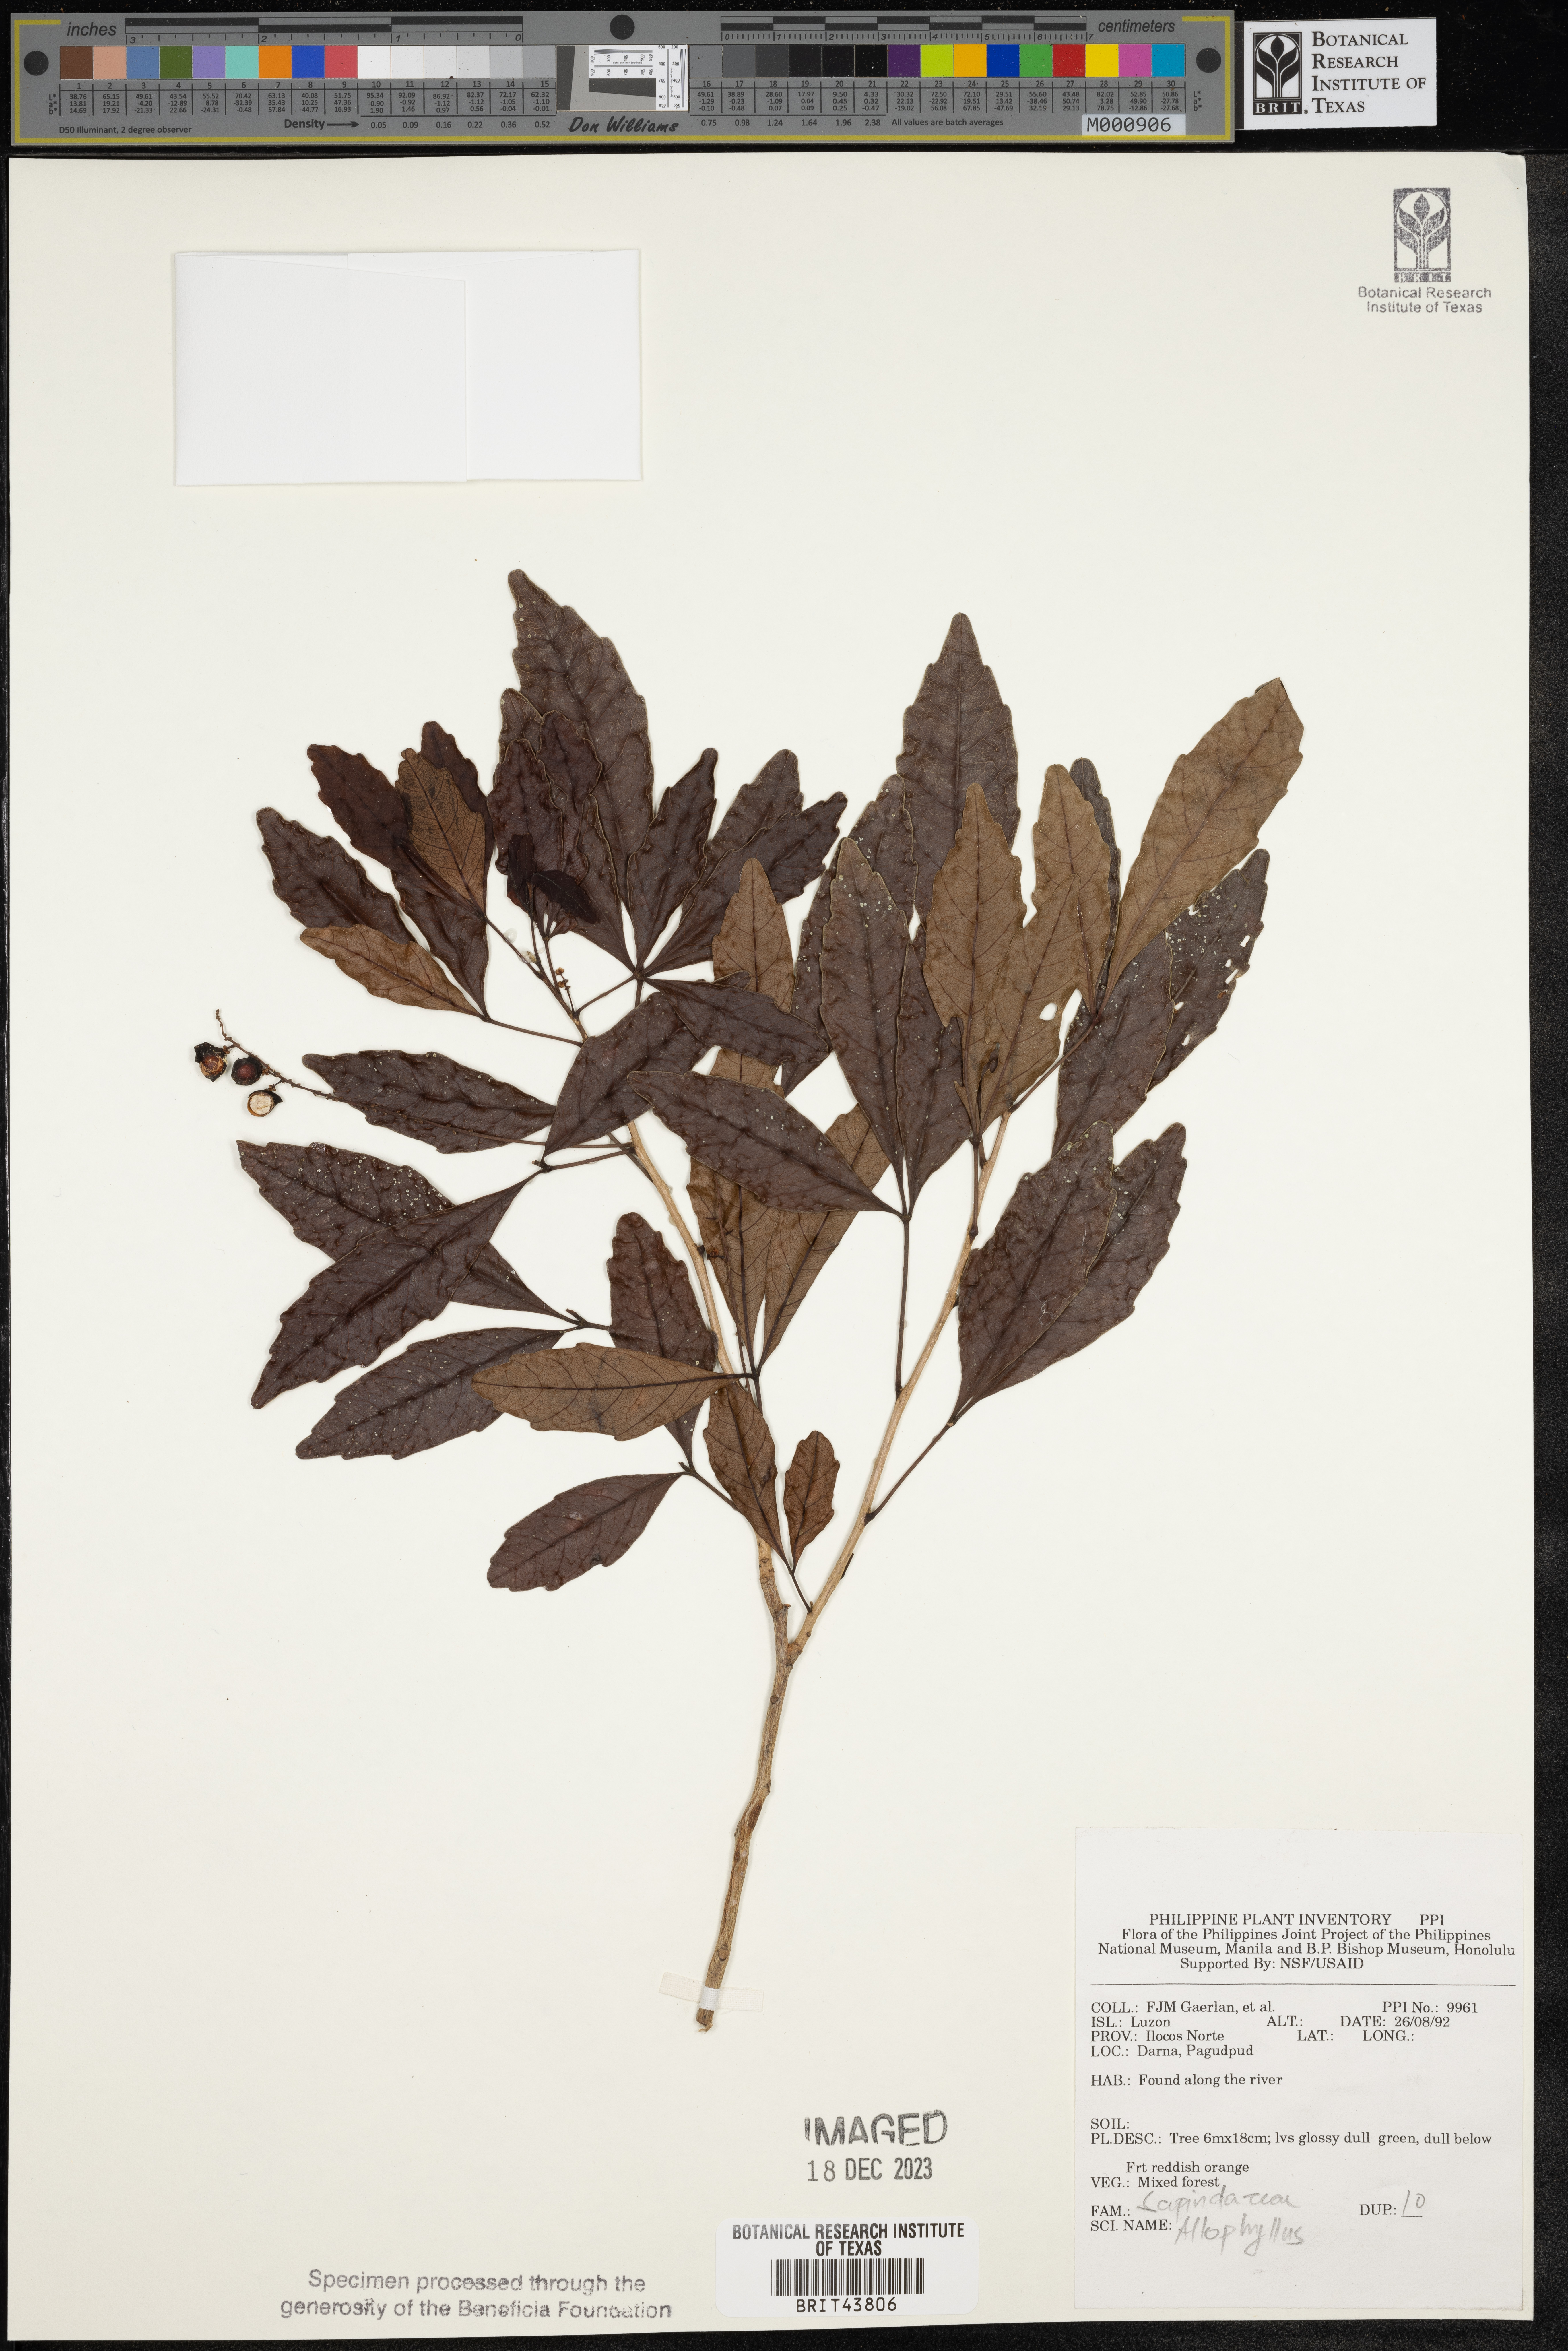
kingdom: Plantae
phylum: Tracheophyta
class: Magnoliopsida
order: Sapindales
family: Sapindaceae
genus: Allophylus
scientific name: Allophylus
